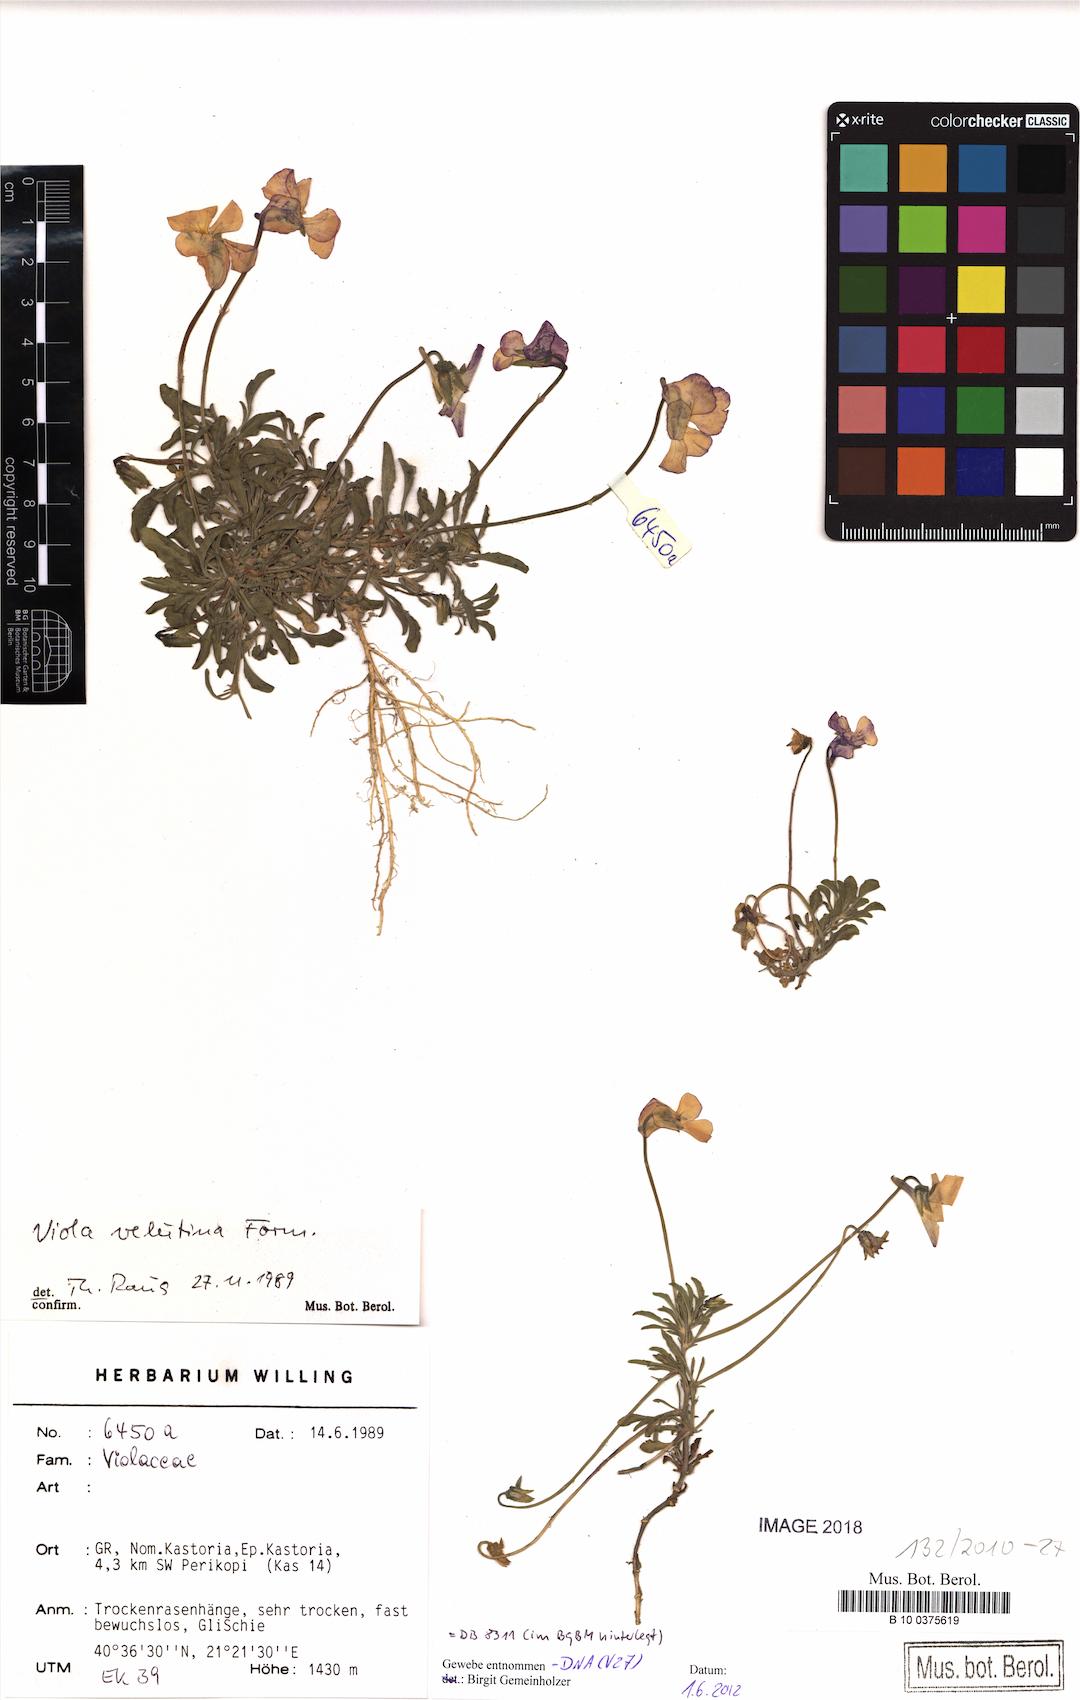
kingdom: Plantae
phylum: Tracheophyta
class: Magnoliopsida
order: Malpighiales
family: Violaceae
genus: Viola
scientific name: Viola velutina
